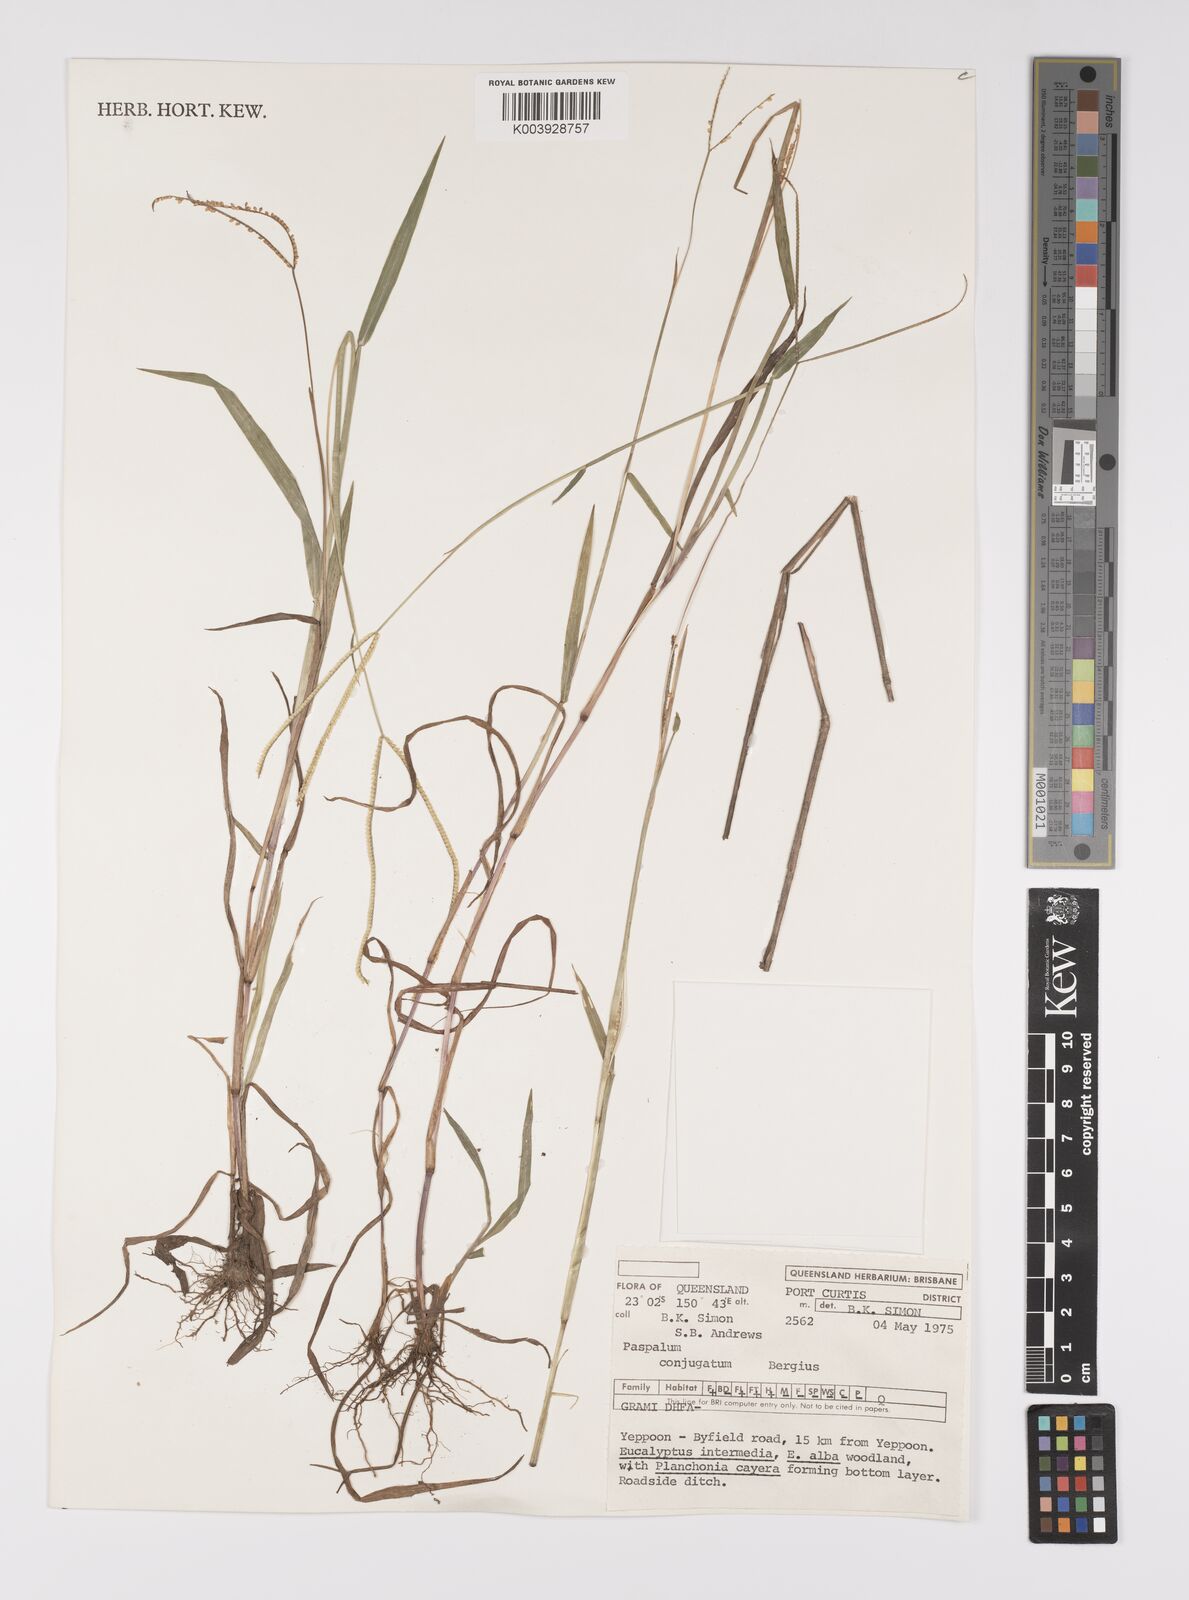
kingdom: Plantae
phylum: Tracheophyta
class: Liliopsida
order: Poales
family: Poaceae
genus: Paspalum
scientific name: Paspalum conjugatum
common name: Hilograss
